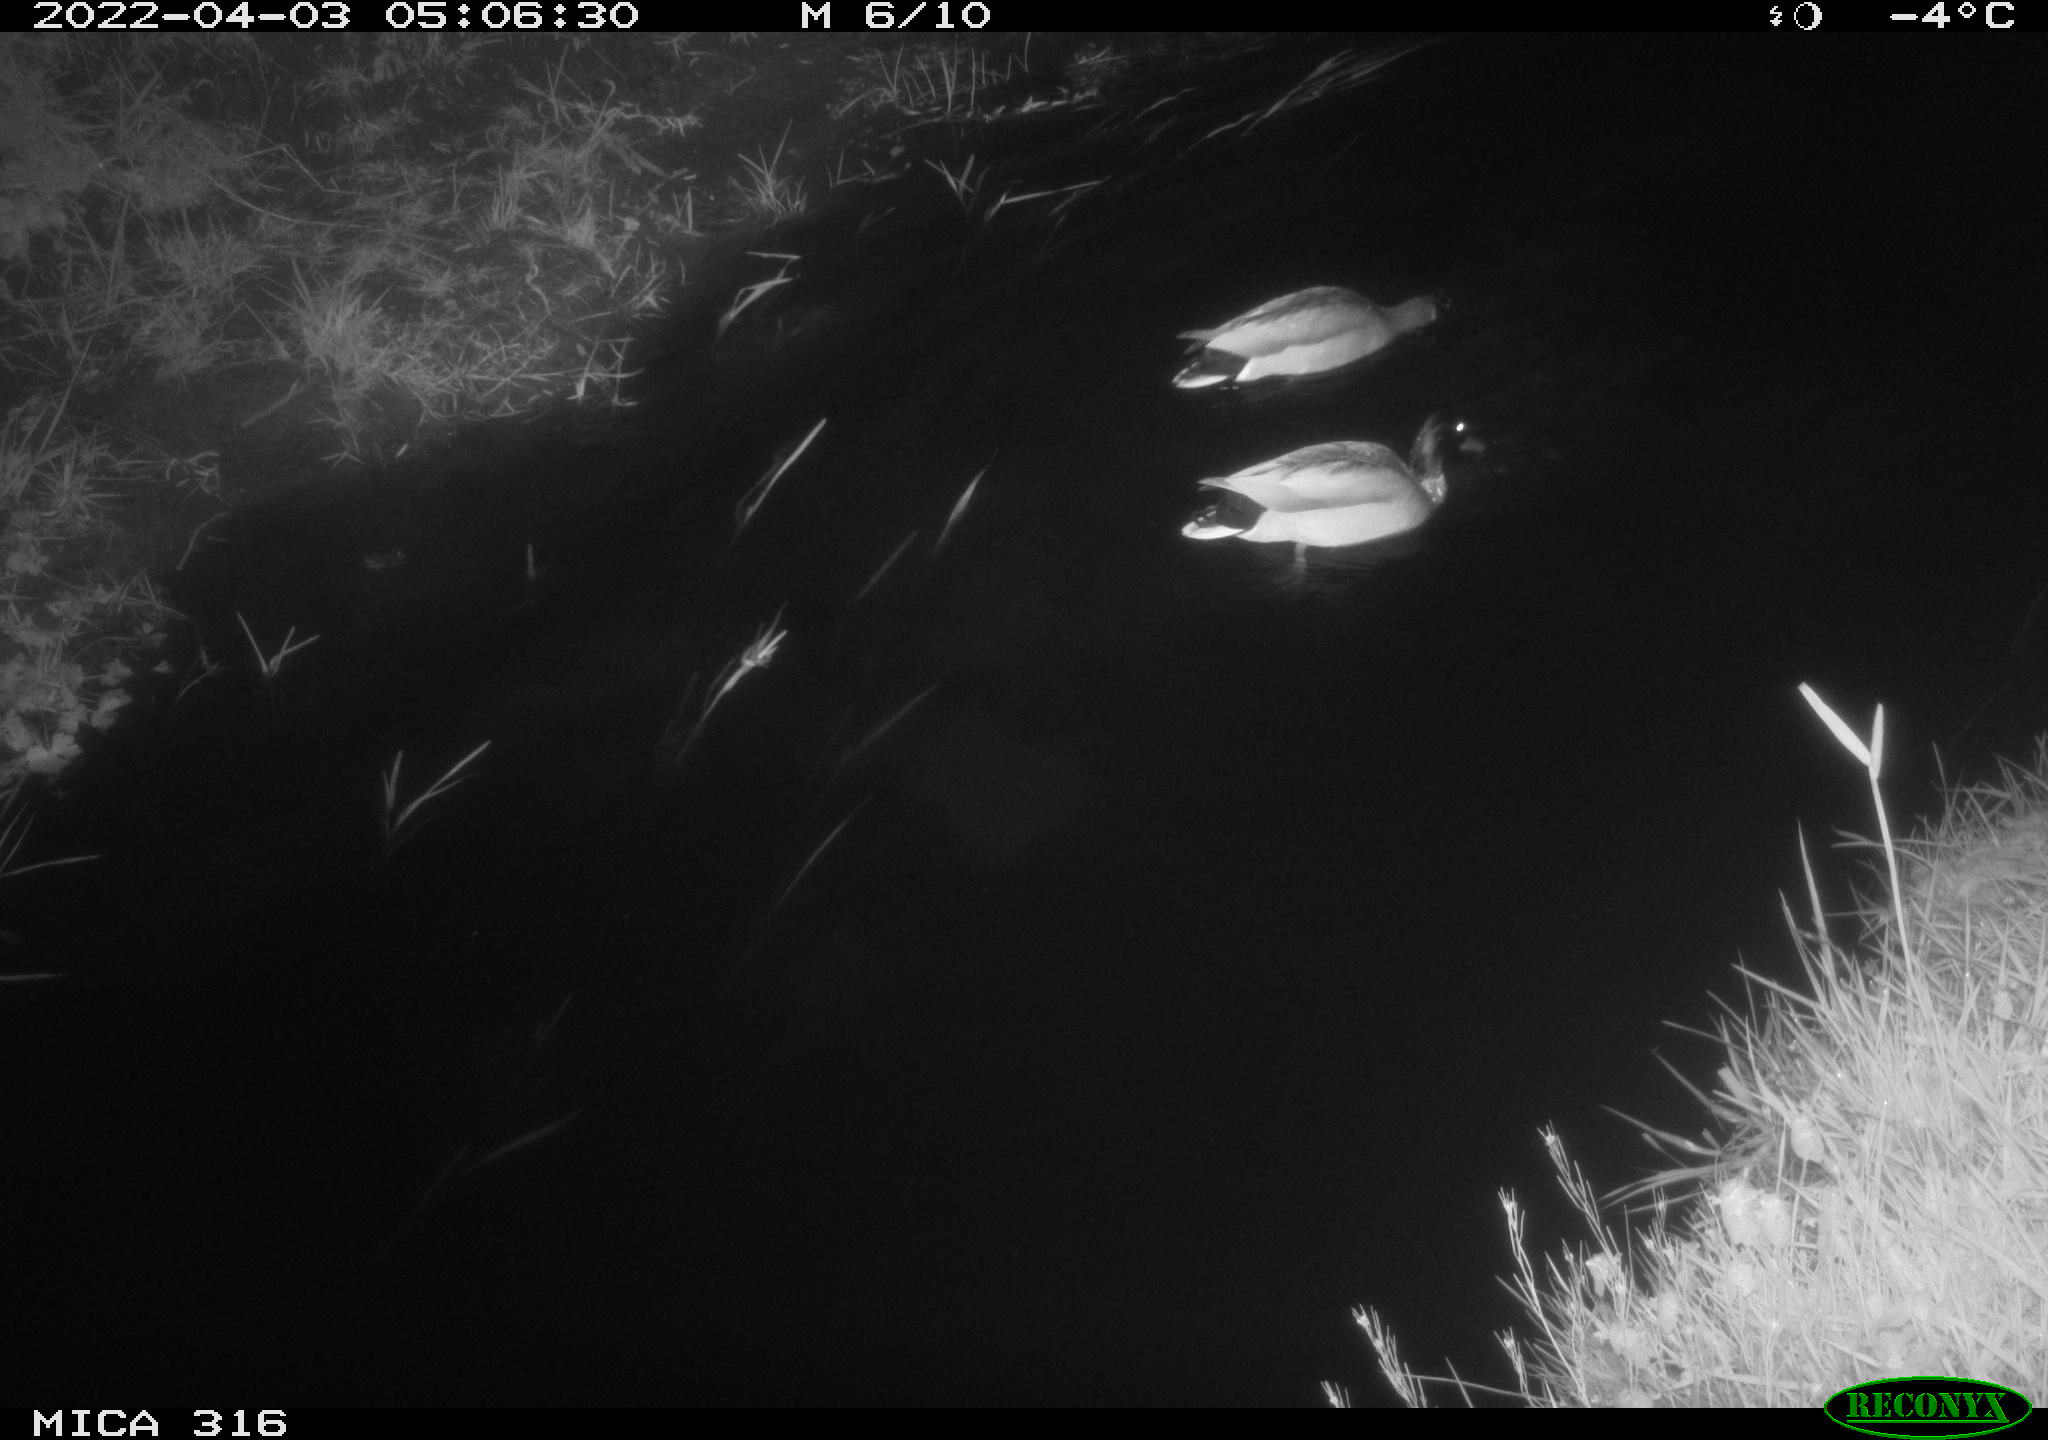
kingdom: Animalia
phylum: Chordata
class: Aves
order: Anseriformes
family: Anatidae
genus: Anas
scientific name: Anas platyrhynchos
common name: Mallard
